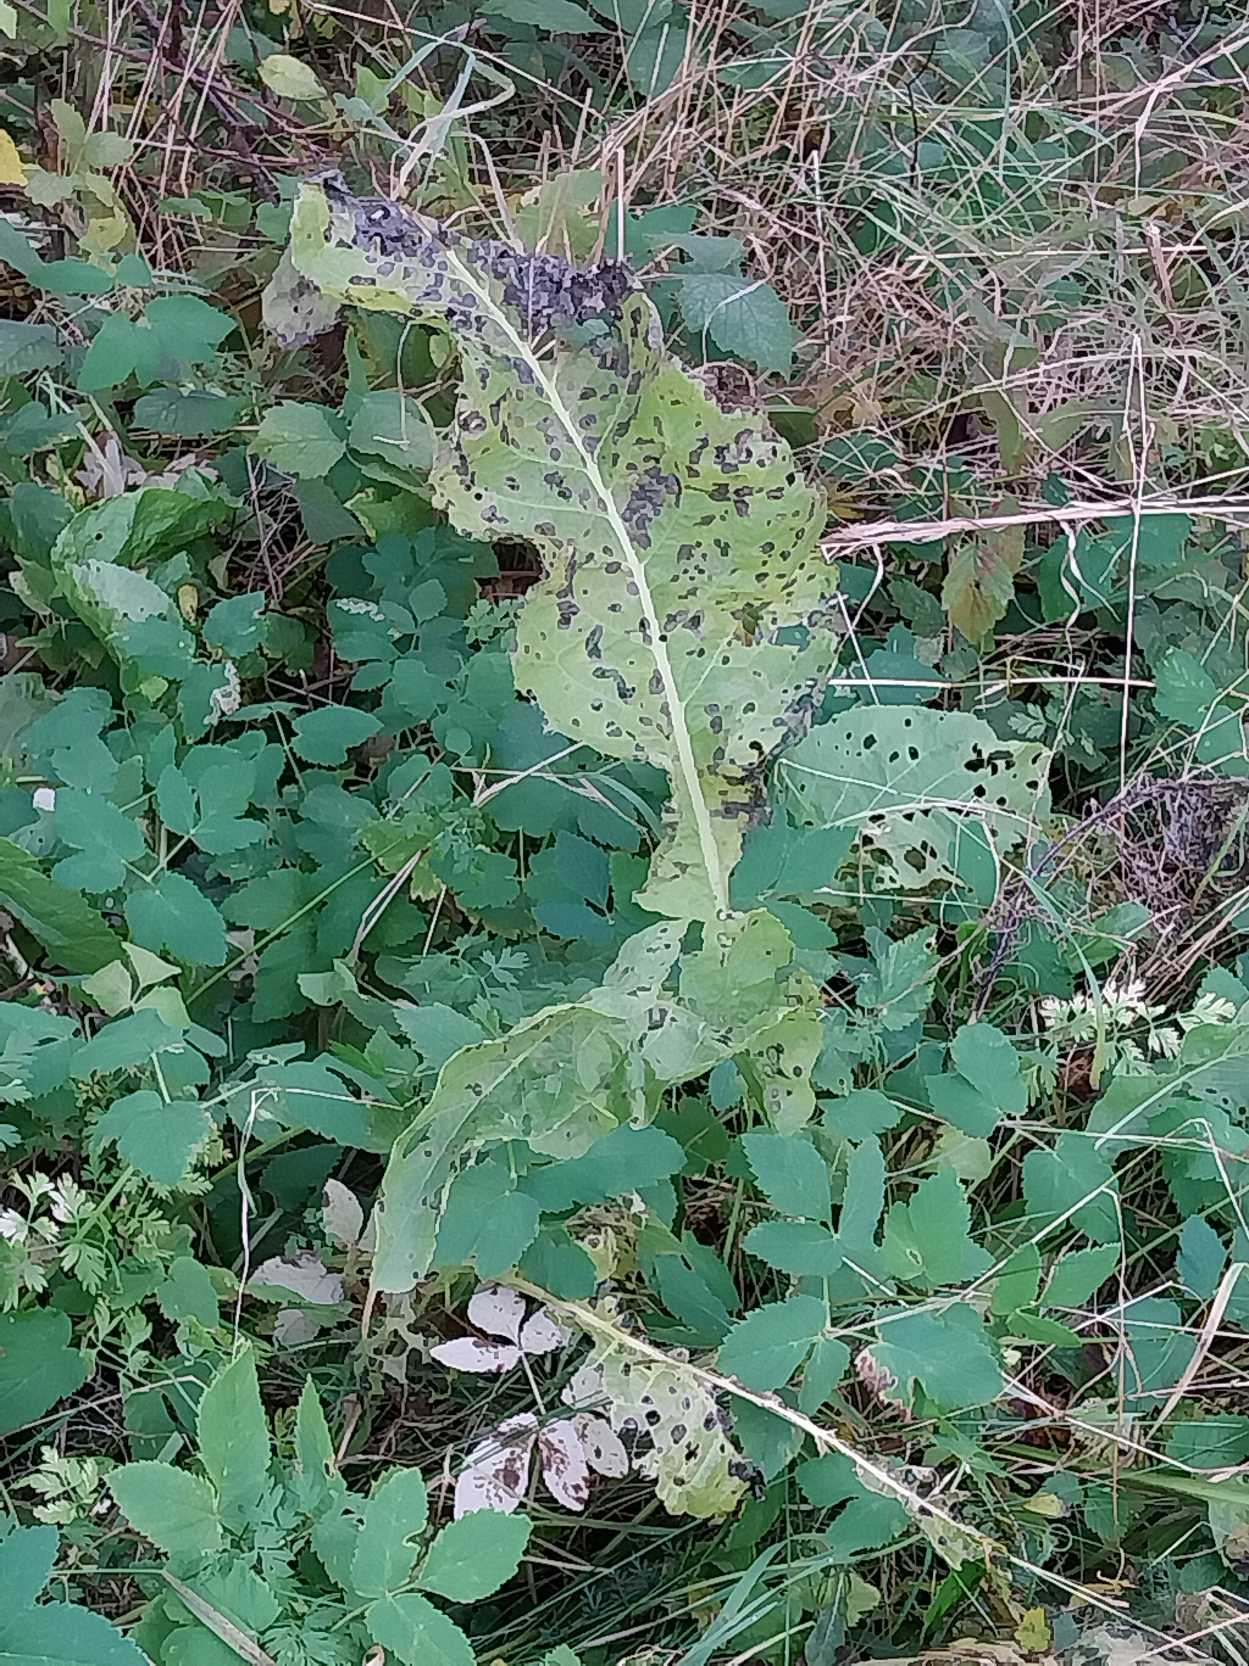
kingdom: Plantae
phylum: Tracheophyta
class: Magnoliopsida
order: Brassicales
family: Brassicaceae
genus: Armoracia
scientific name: Armoracia rusticana
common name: Peberrod
